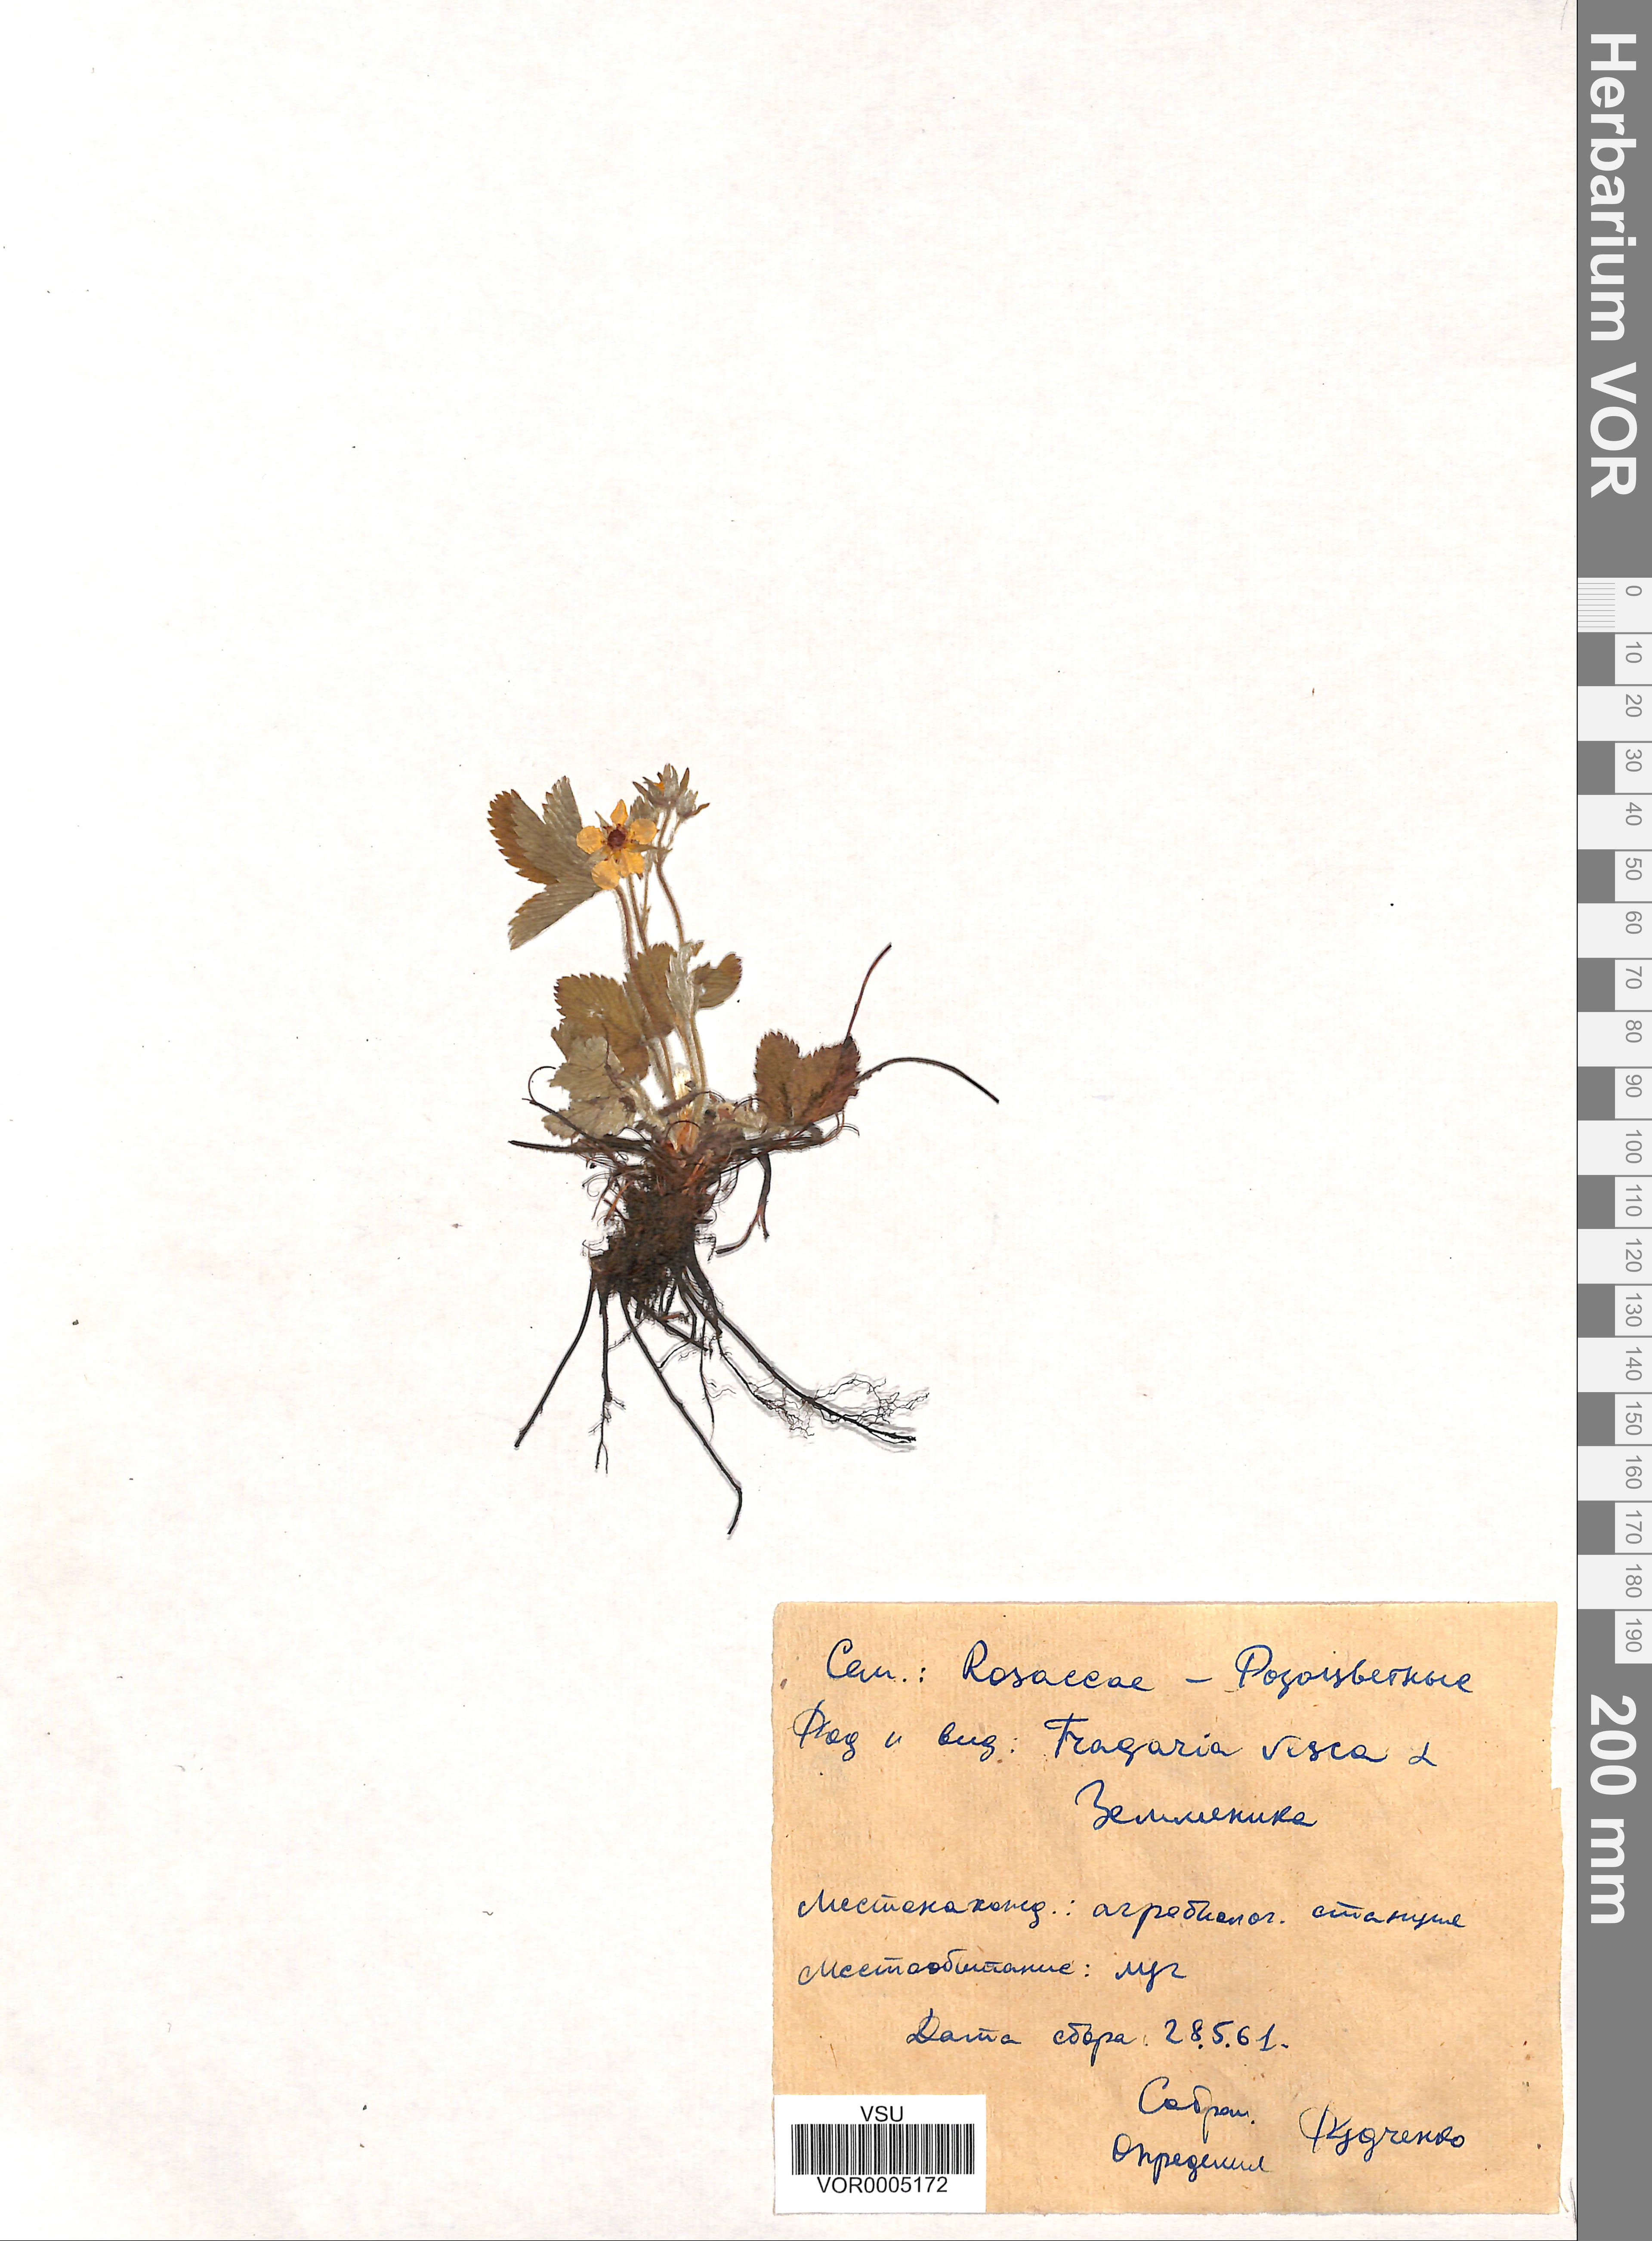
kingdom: Plantae
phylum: Tracheophyta
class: Magnoliopsida
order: Rosales
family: Rosaceae
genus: Fragaria
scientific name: Fragaria vesca
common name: Wild strawberry
